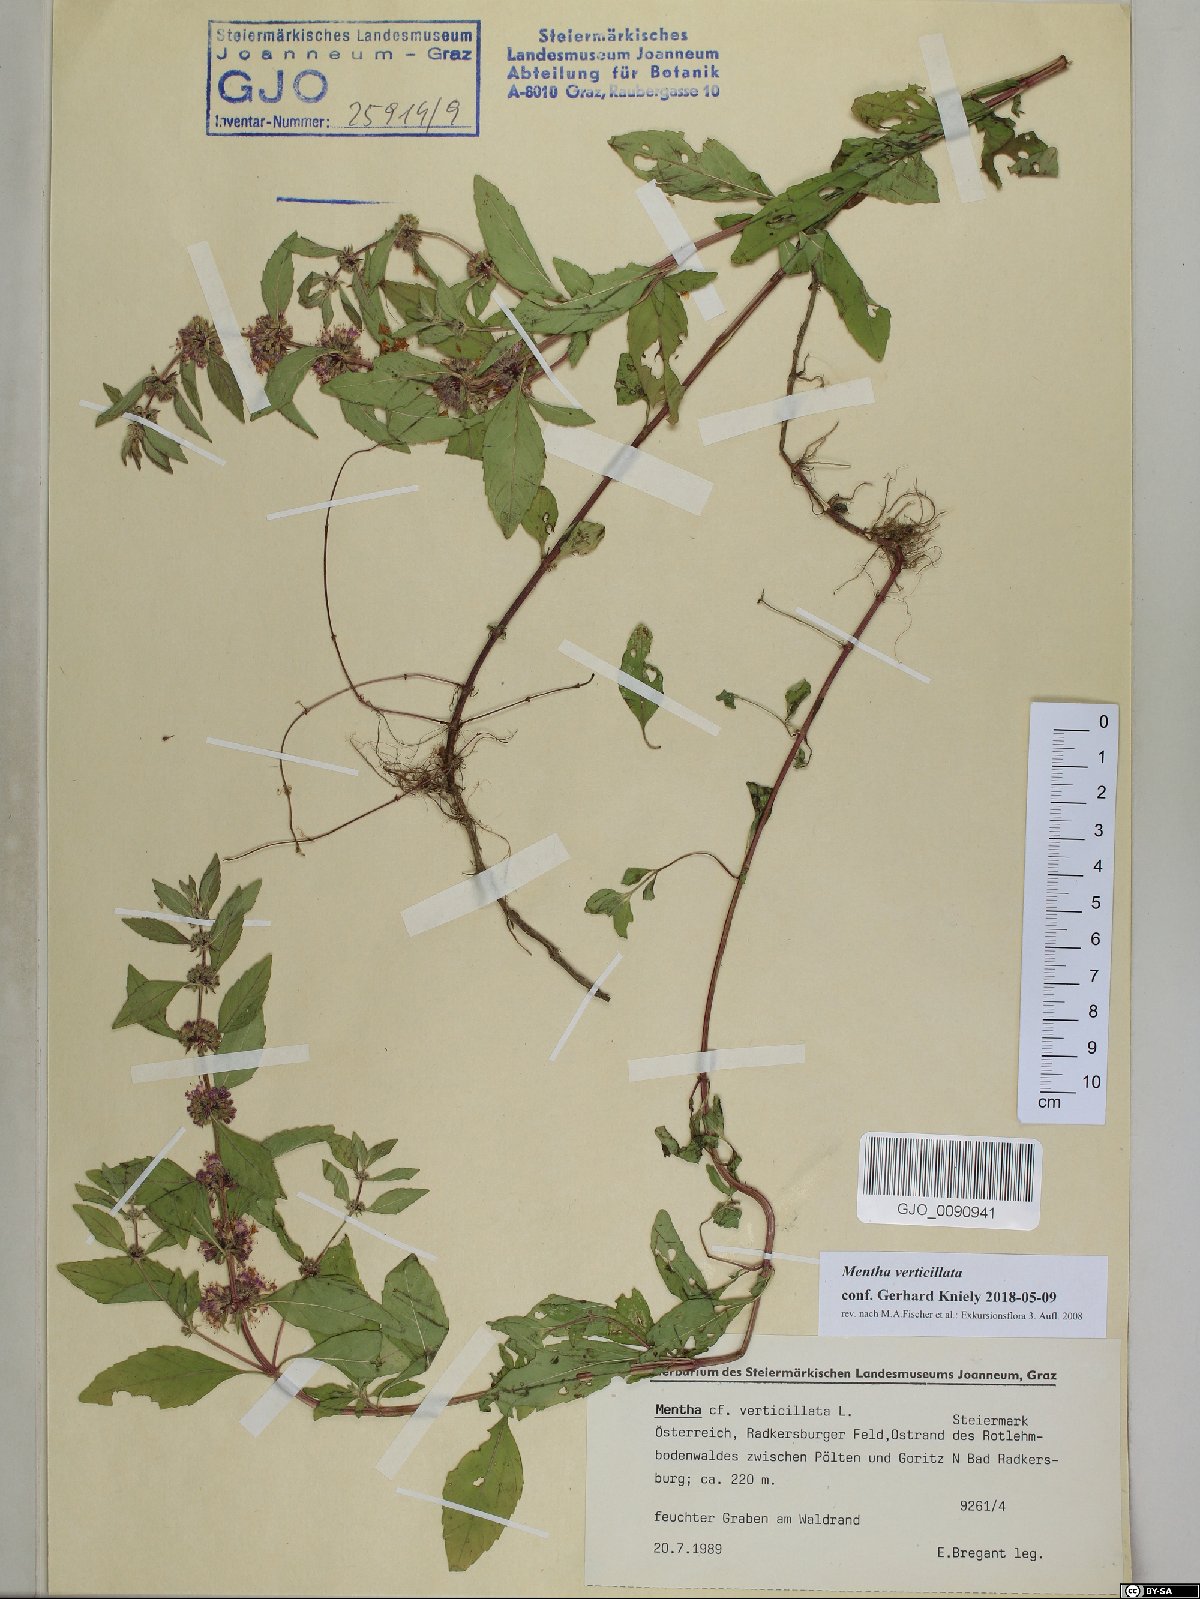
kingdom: Plantae
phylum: Tracheophyta
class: Magnoliopsida
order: Lamiales
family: Lamiaceae
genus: Mentha
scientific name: Mentha verticillata
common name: Mint
